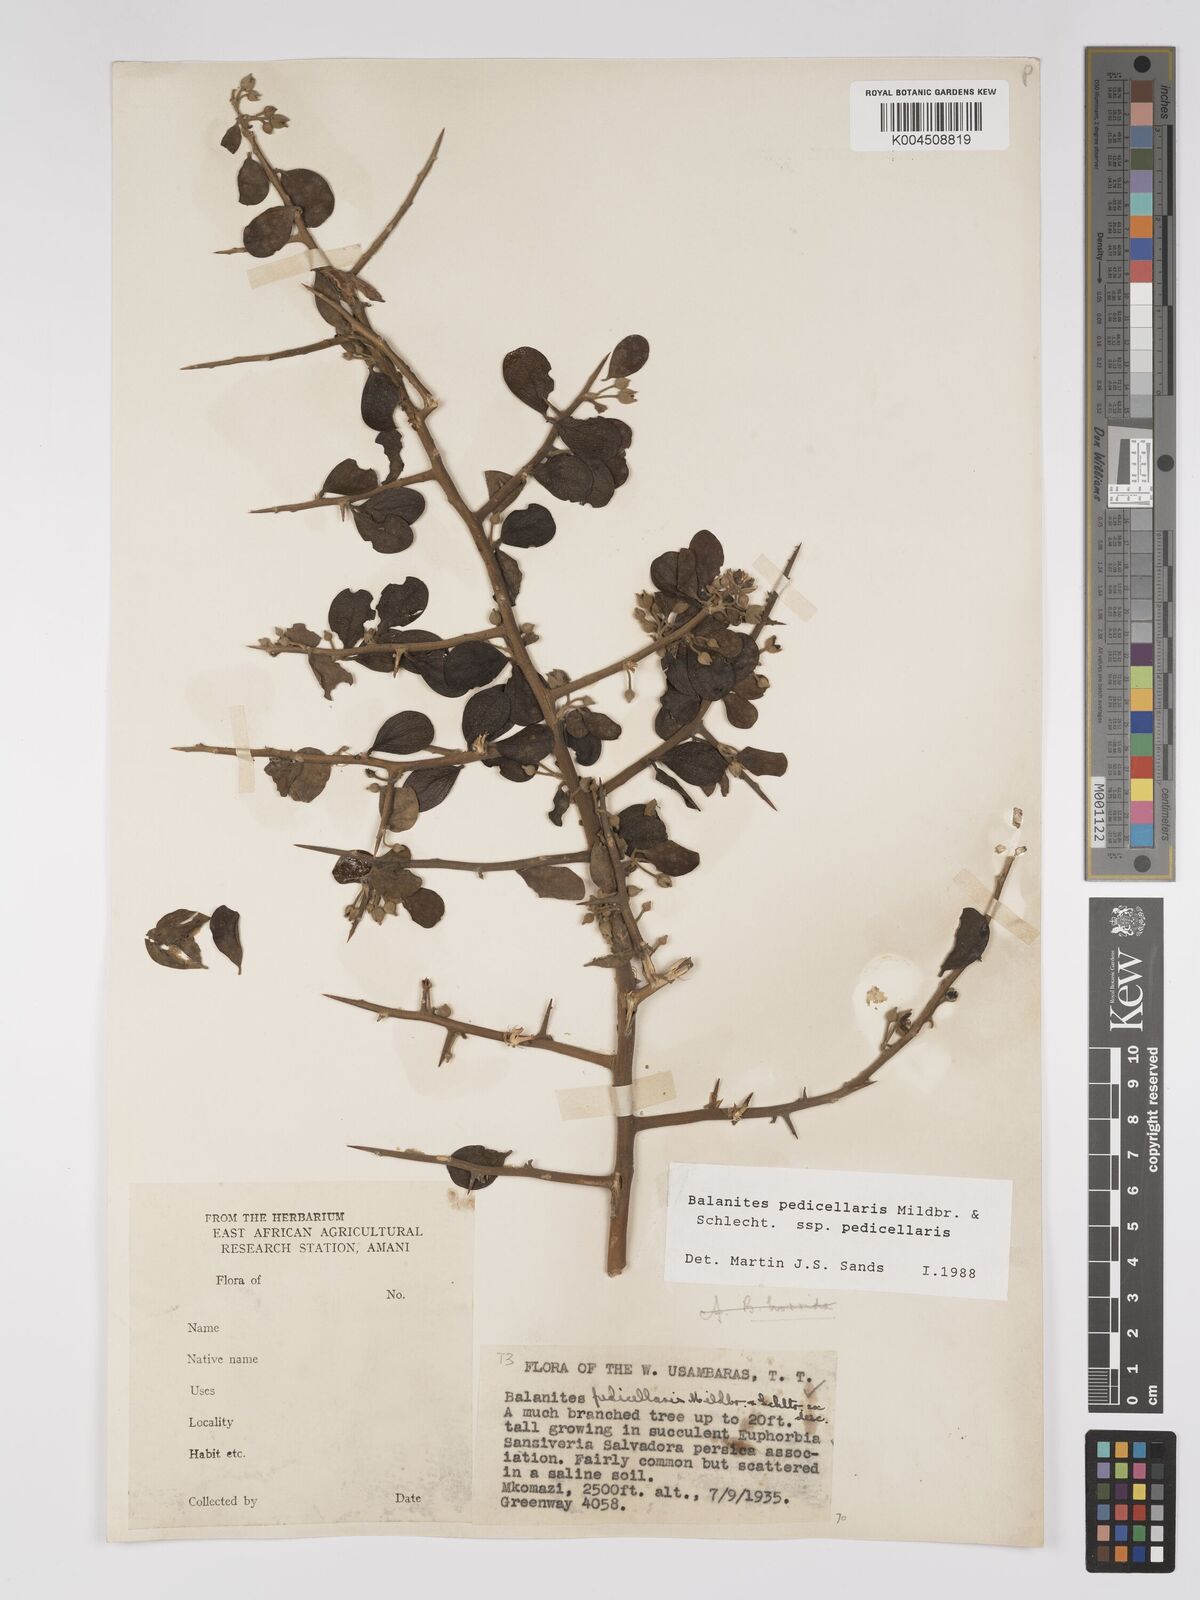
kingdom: Plantae
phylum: Tracheophyta
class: Magnoliopsida
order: Zygophyllales
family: Zygophyllaceae
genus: Balanites
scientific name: Balanites pedicellaris
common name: Small green-thorn
